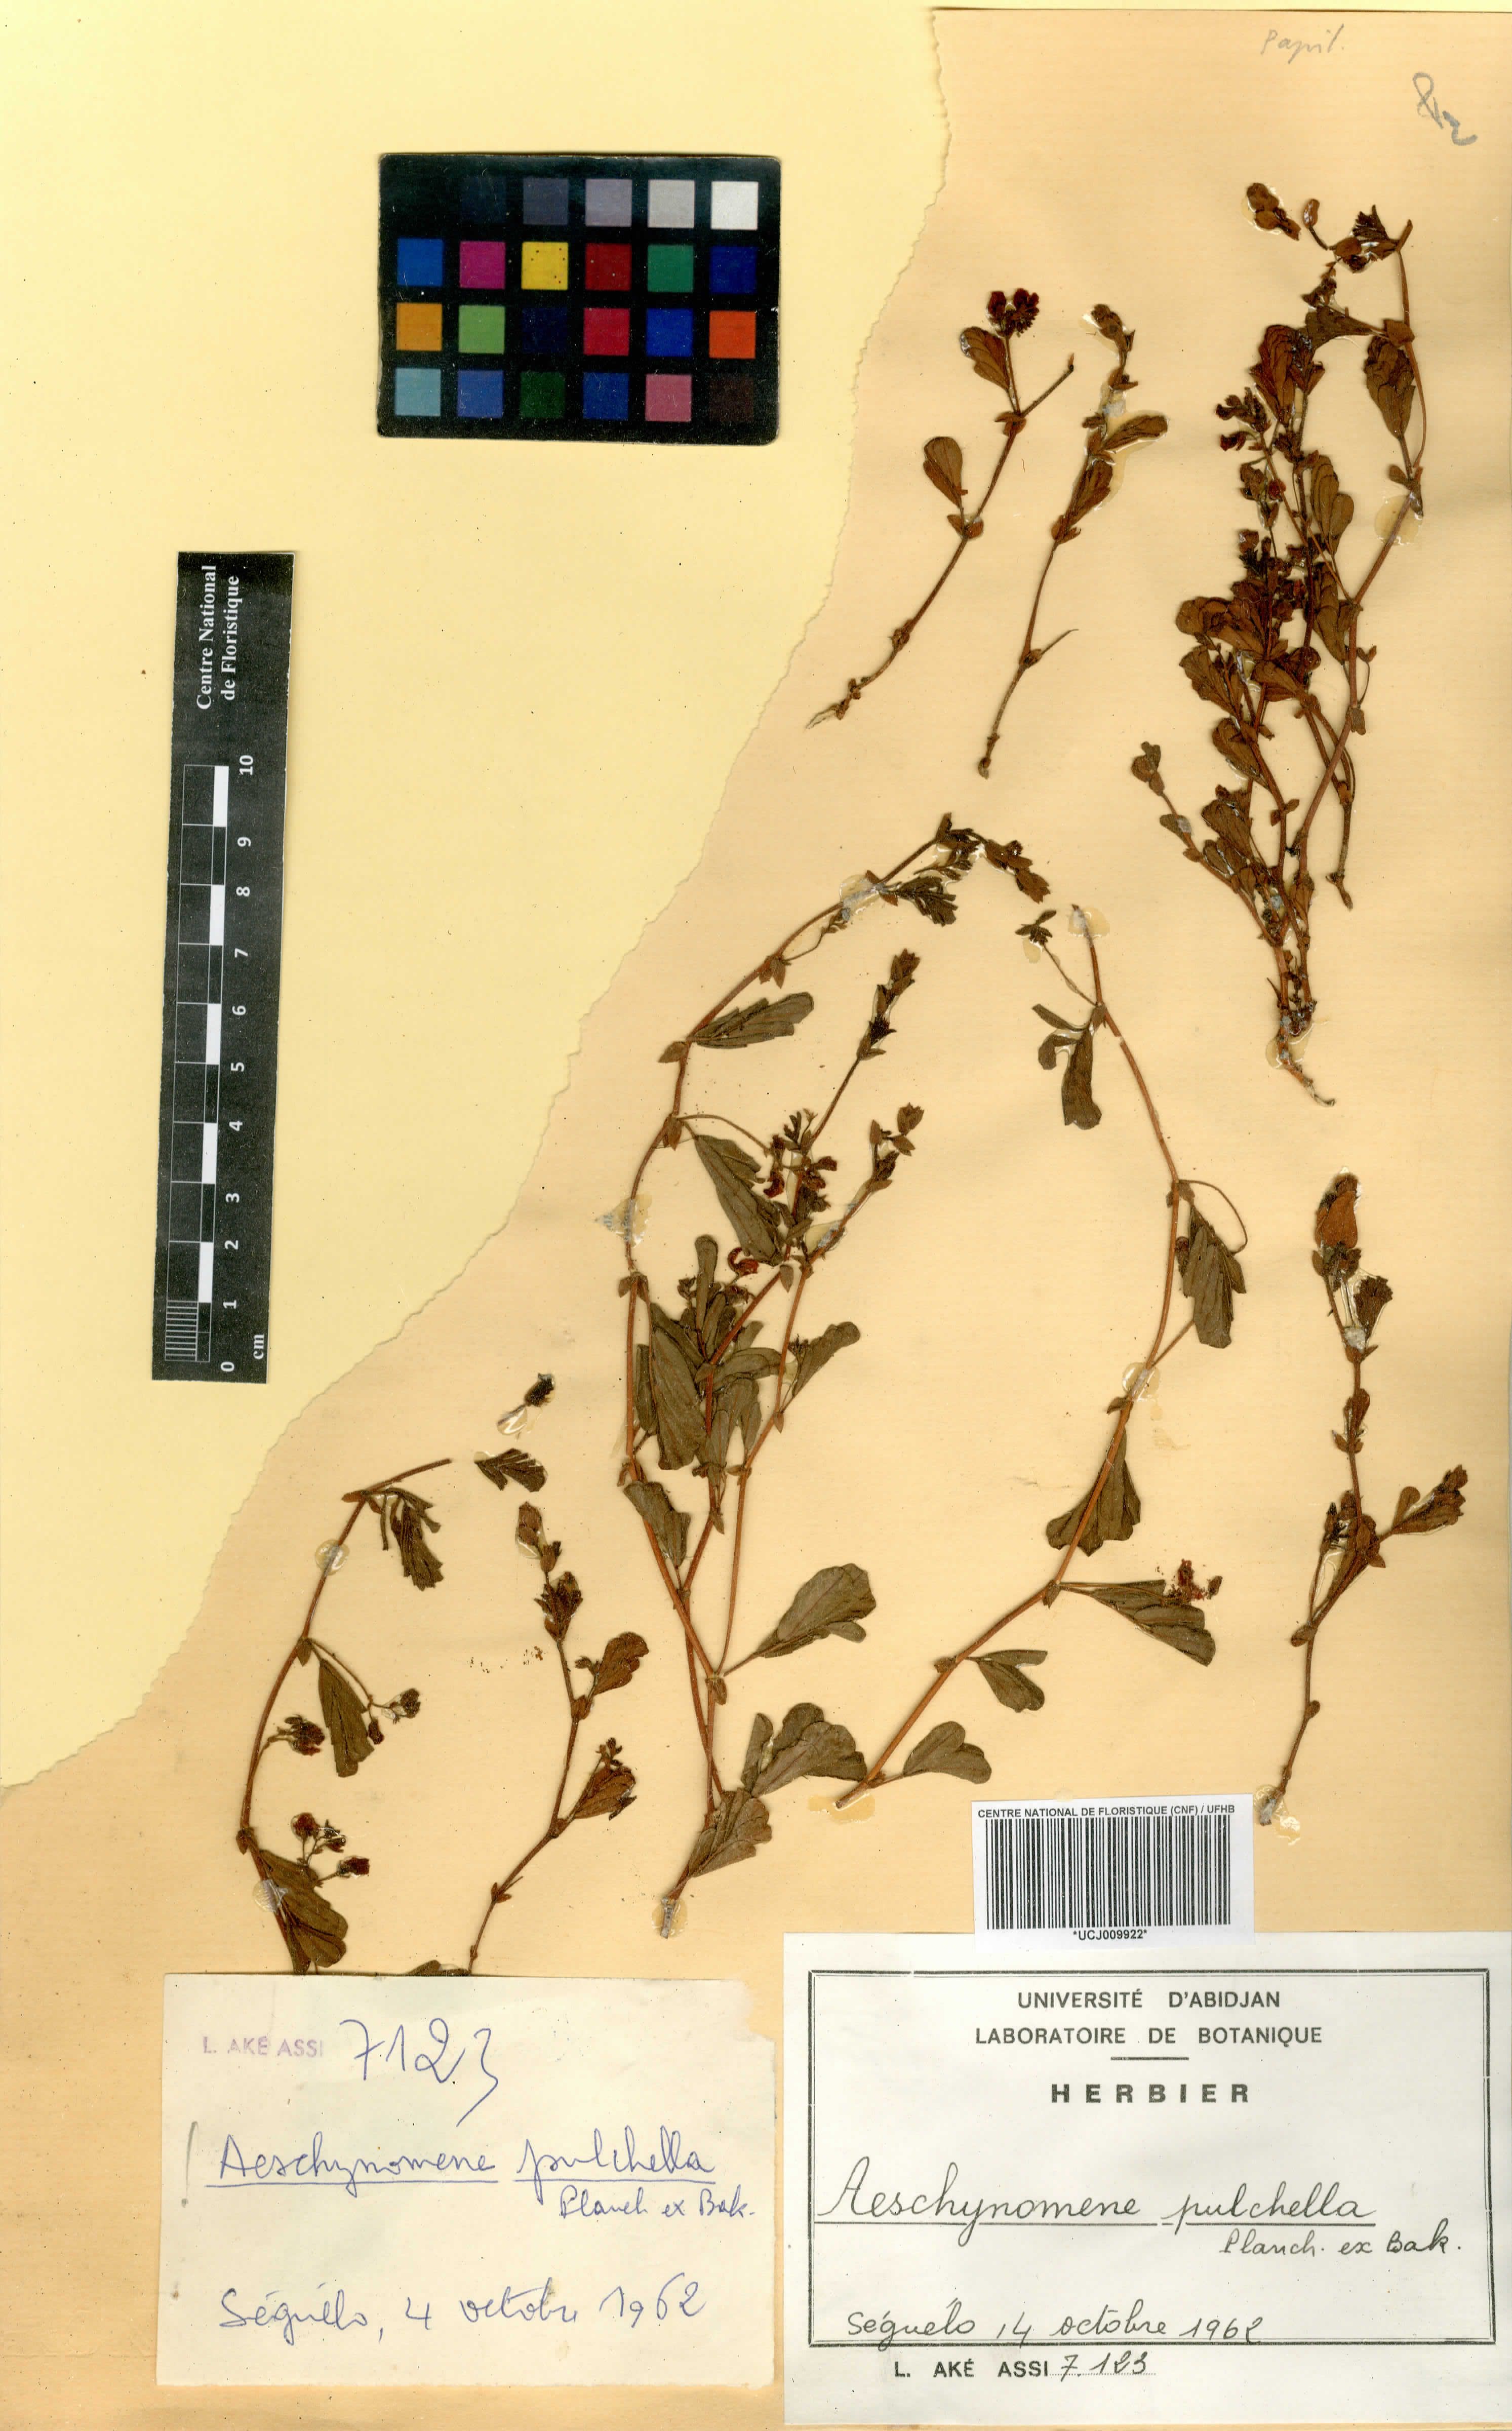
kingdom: Plantae
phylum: Tracheophyta
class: Magnoliopsida
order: Fabales
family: Fabaceae
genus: Aeschynomene
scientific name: Aeschynomene pulchella
